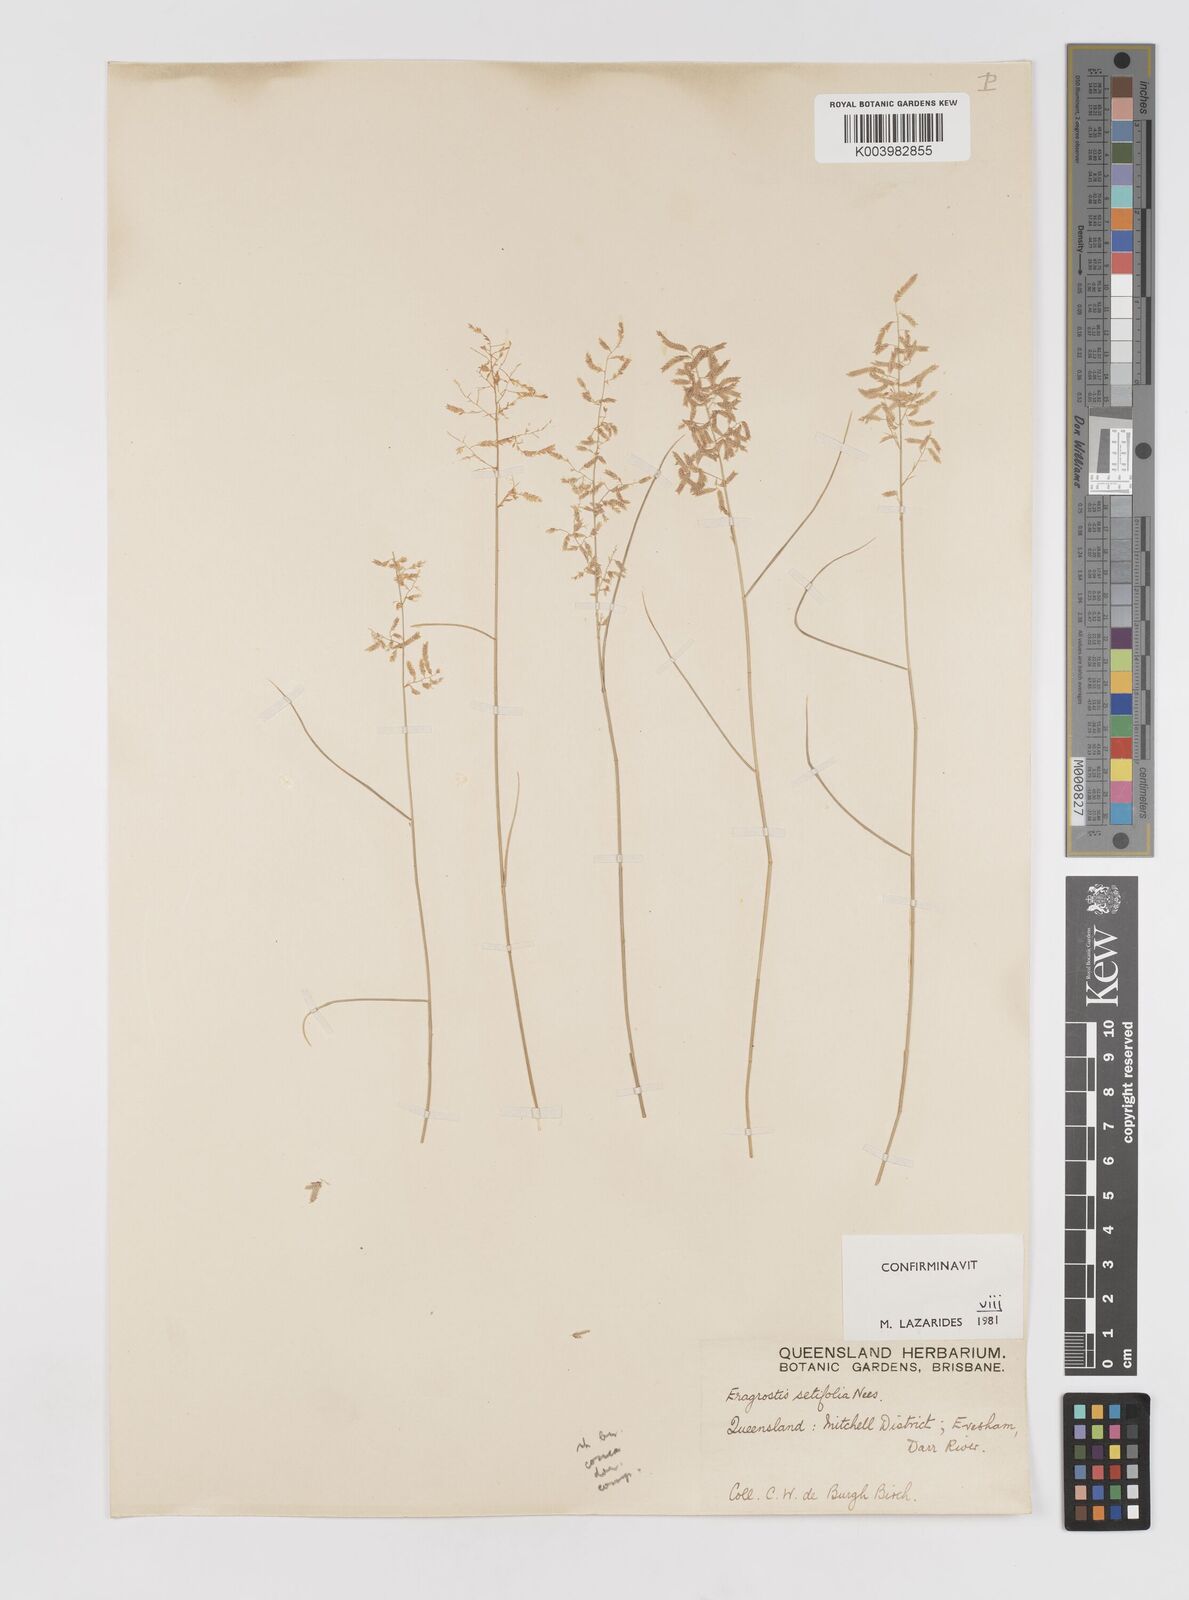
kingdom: Plantae
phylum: Tracheophyta
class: Liliopsida
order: Poales
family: Poaceae
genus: Eragrostis
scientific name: Eragrostis setifolia
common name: Bristleleaf lovegrass
